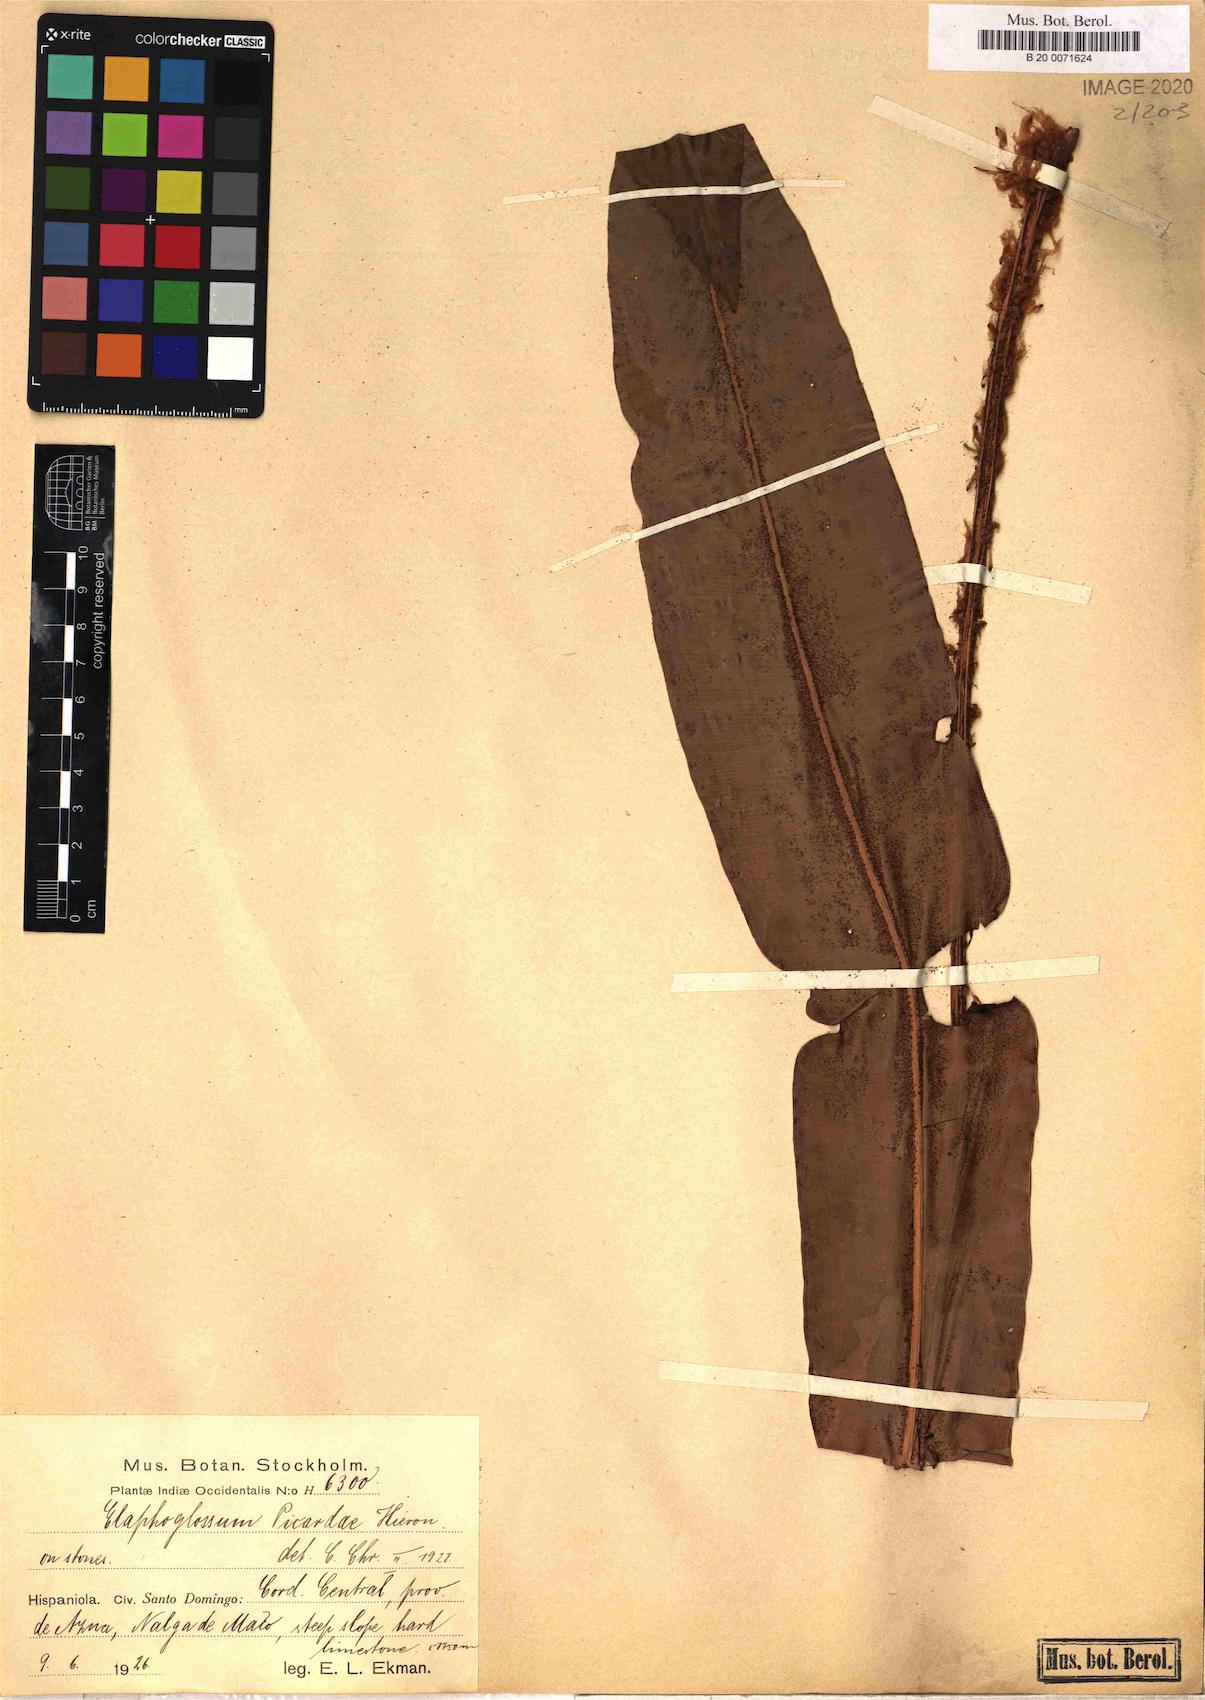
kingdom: Plantae
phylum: Tracheophyta
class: Polypodiopsida
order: Polypodiales
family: Dryopteridaceae
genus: Elaphoglossum
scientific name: Elaphoglossum picardae
